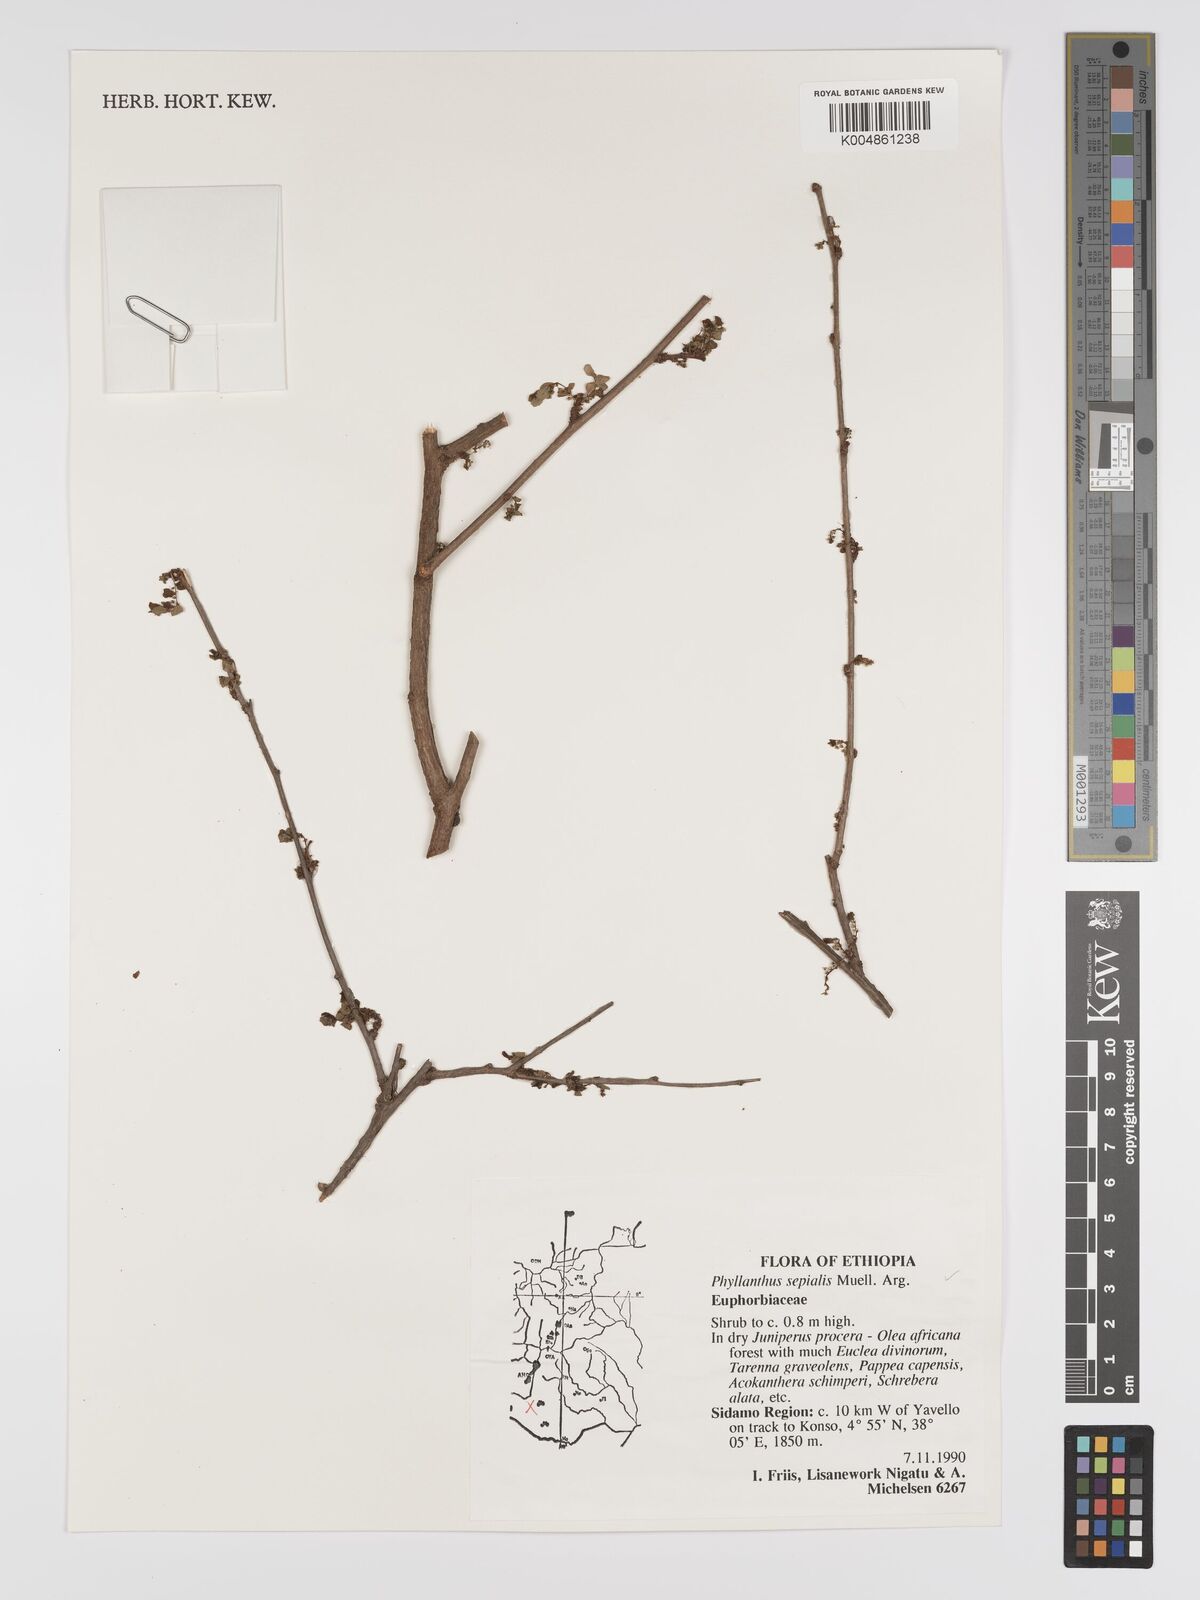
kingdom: Plantae
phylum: Tracheophyta
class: Magnoliopsida
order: Malpighiales
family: Phyllanthaceae
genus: Phyllanthus
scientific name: Phyllanthus sepialis
